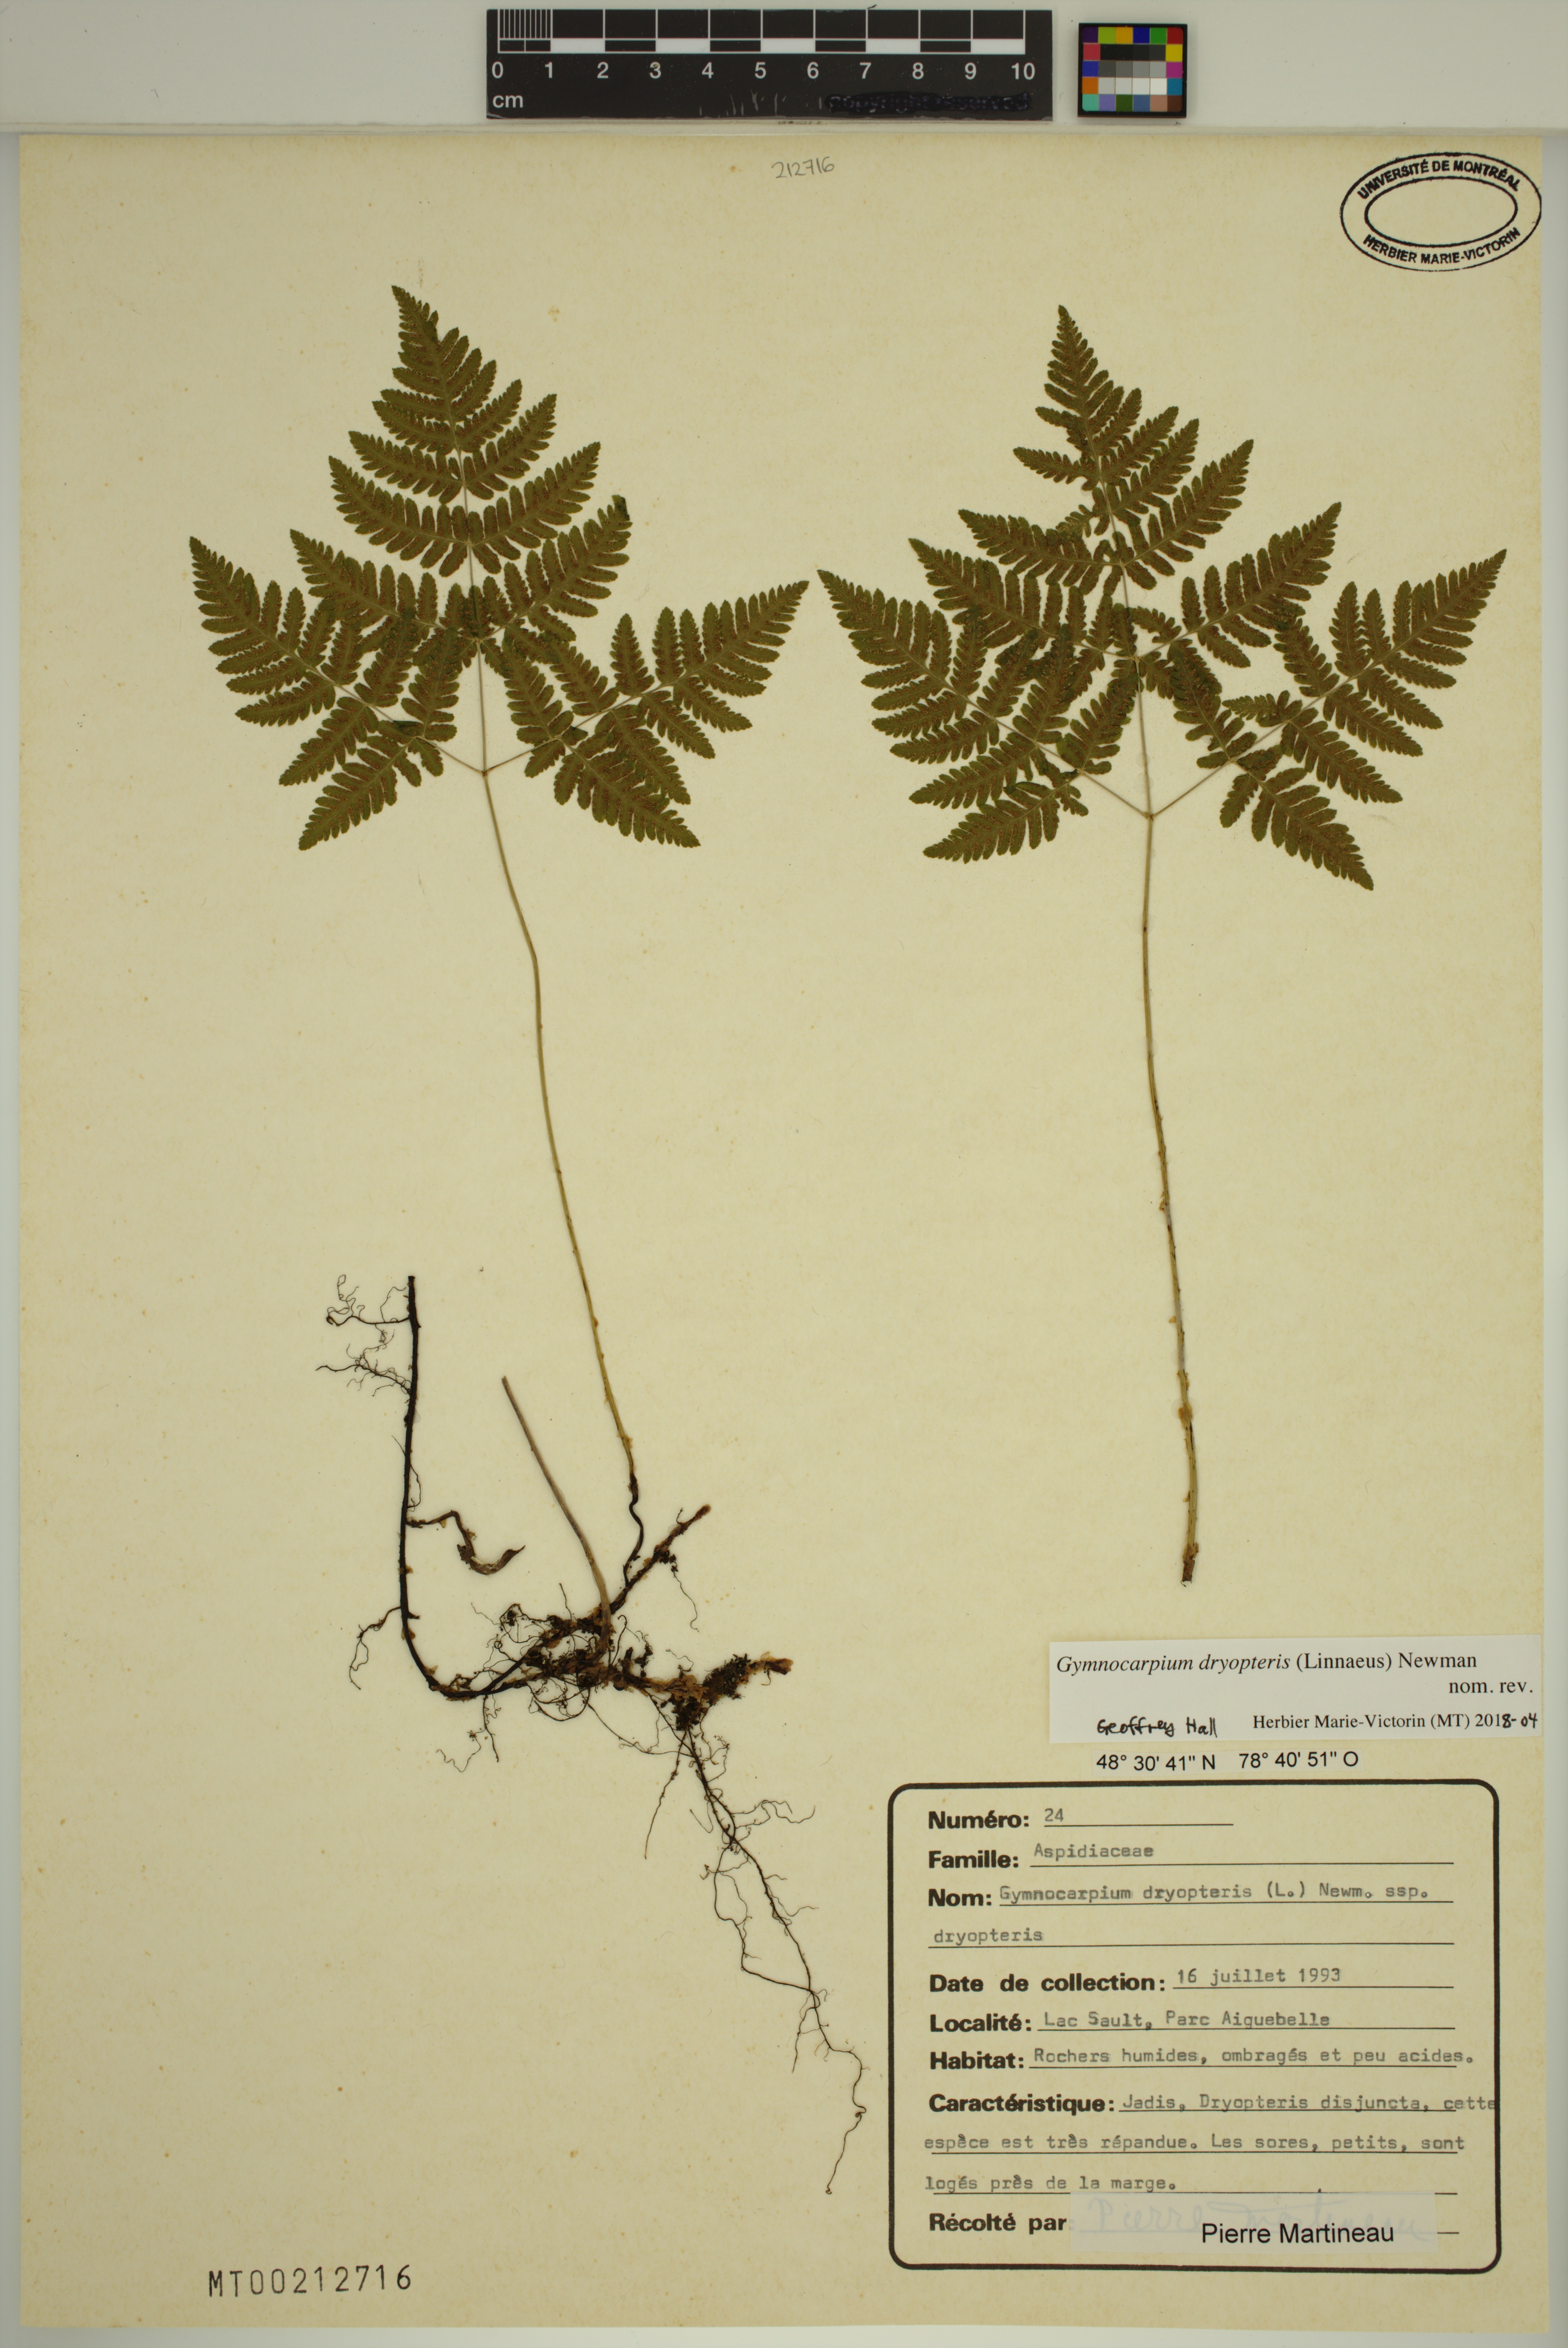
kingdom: Plantae
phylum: Tracheophyta
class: Polypodiopsida
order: Polypodiales
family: Cystopteridaceae
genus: Gymnocarpium
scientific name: Gymnocarpium dryopteris
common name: Oak fern
